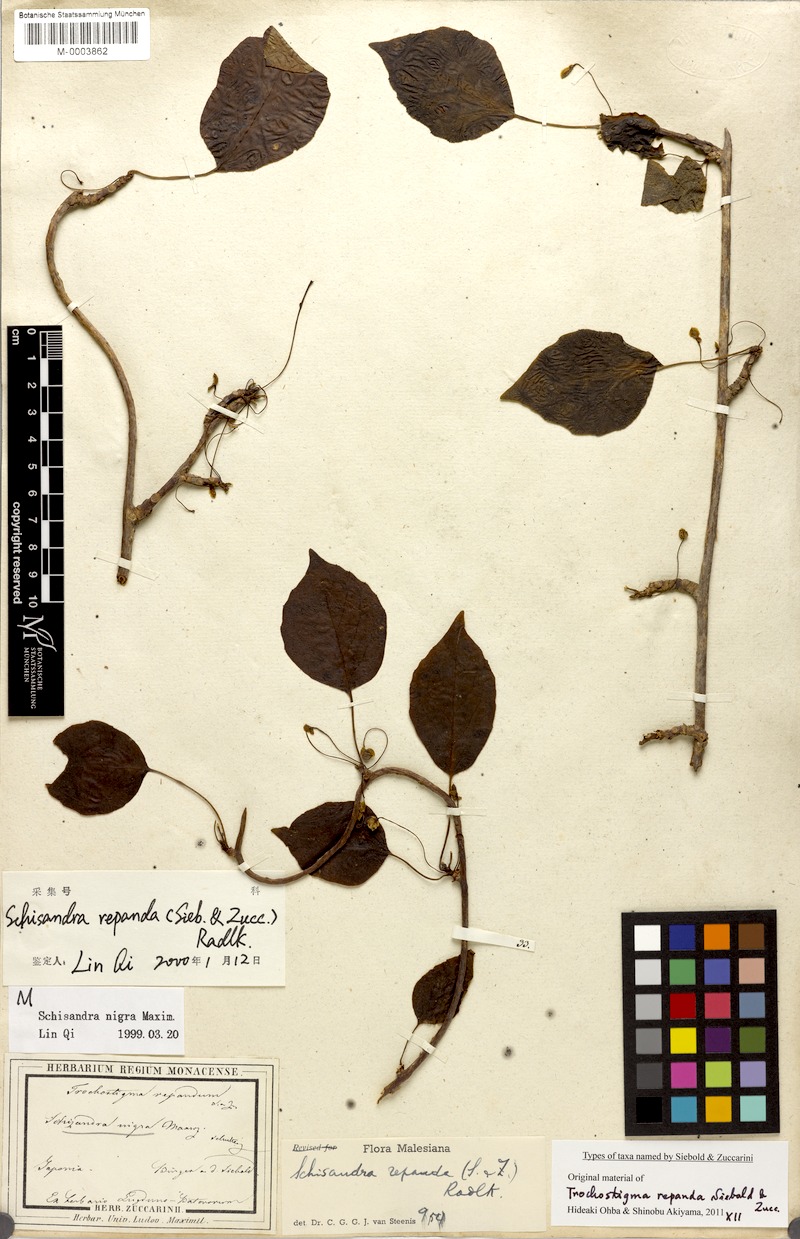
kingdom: Plantae
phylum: Tracheophyta
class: Magnoliopsida
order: Austrobaileyales
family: Schisandraceae
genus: Schisandra
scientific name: Schisandra repanda
